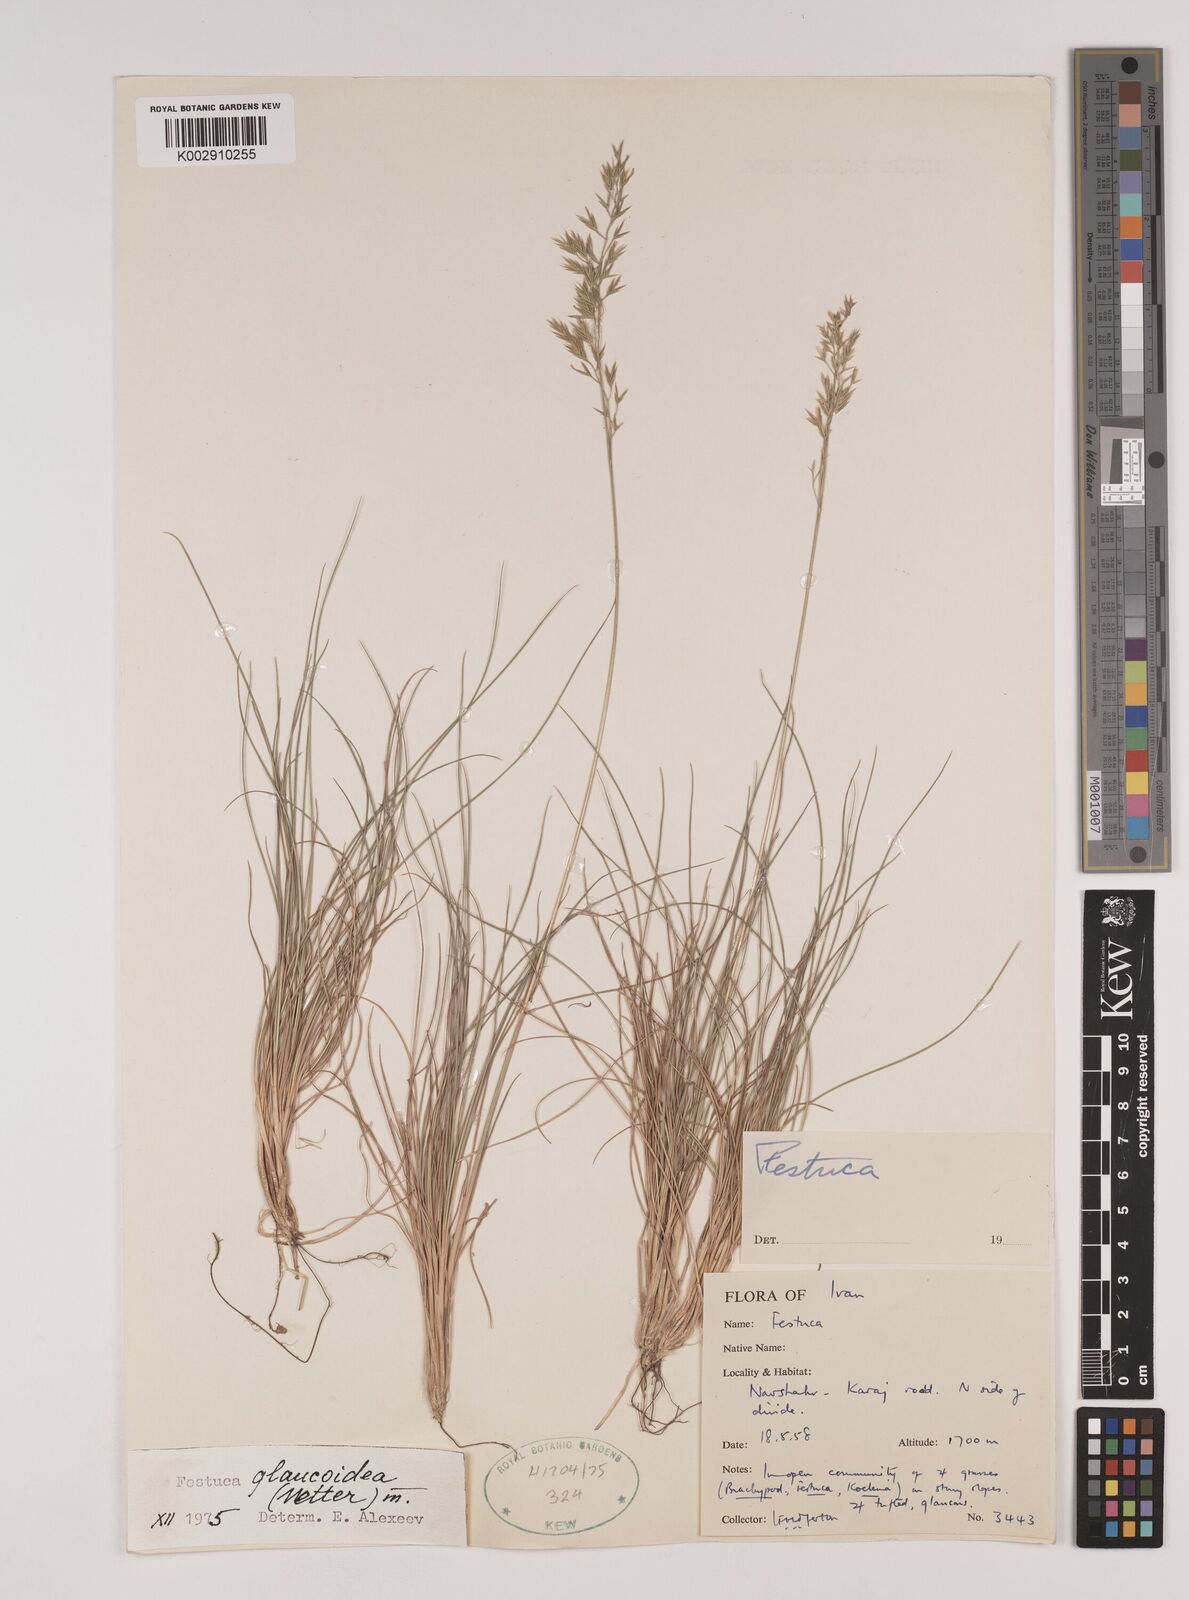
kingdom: Plantae
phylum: Tracheophyta
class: Liliopsida
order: Poales
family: Poaceae
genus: Festuca
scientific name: Festuca ovina
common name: Sheep fescue
